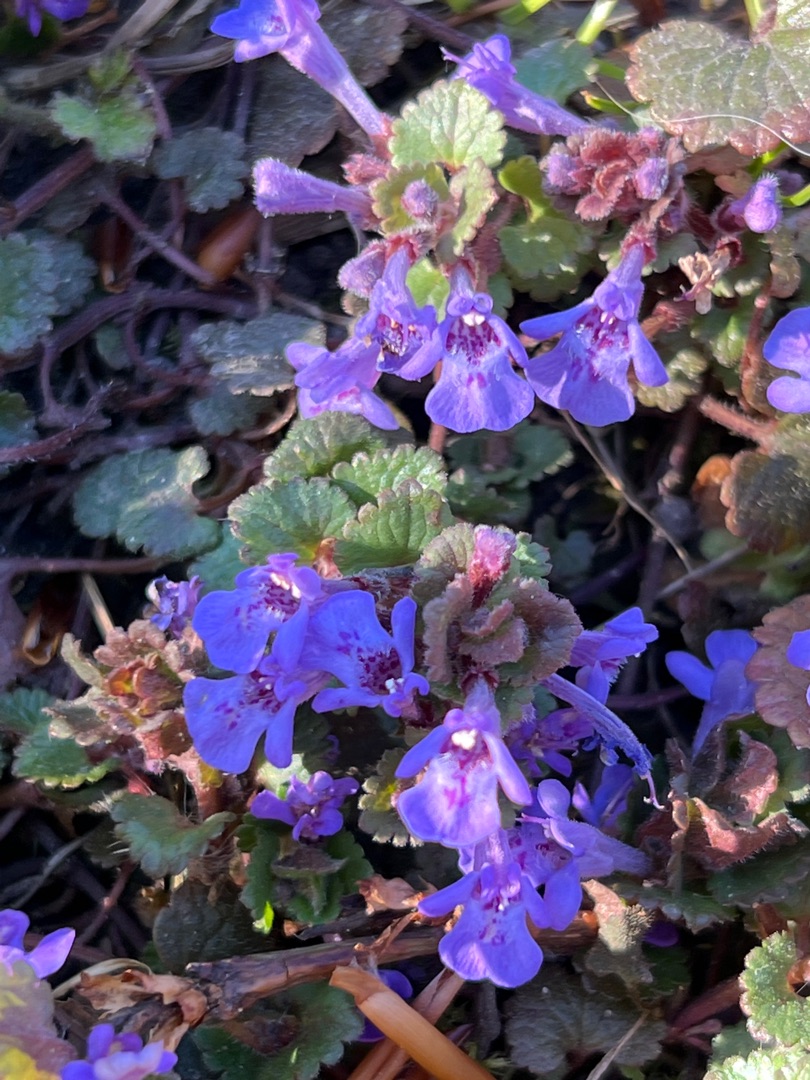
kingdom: Plantae
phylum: Tracheophyta
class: Magnoliopsida
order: Lamiales
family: Lamiaceae
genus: Glechoma
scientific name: Glechoma hederacea
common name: Korsknap
